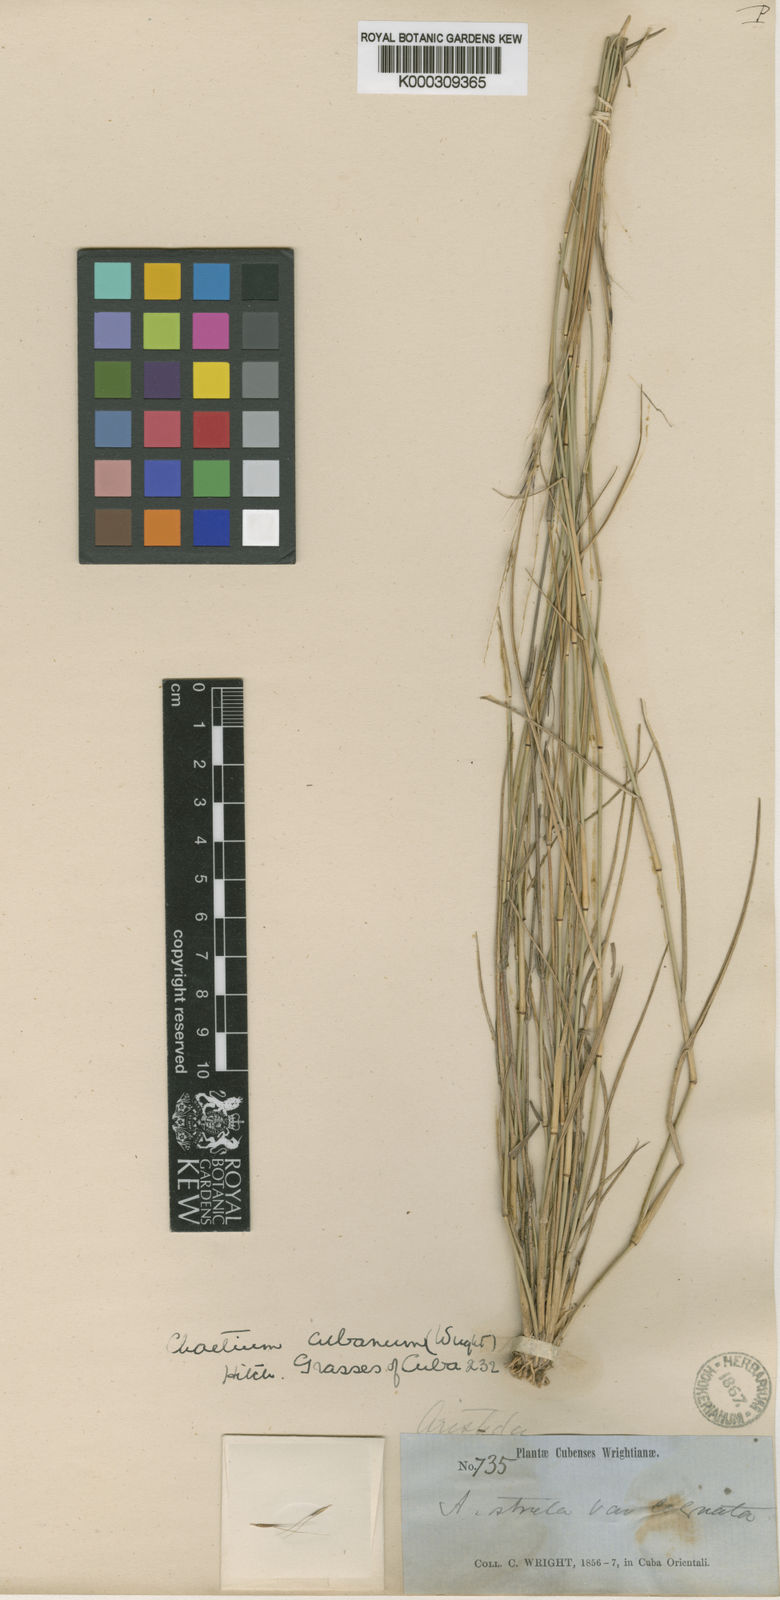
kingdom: Plantae
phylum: Tracheophyta
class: Liliopsida
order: Poales
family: Poaceae
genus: Chaetium
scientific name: Chaetium cubanum
